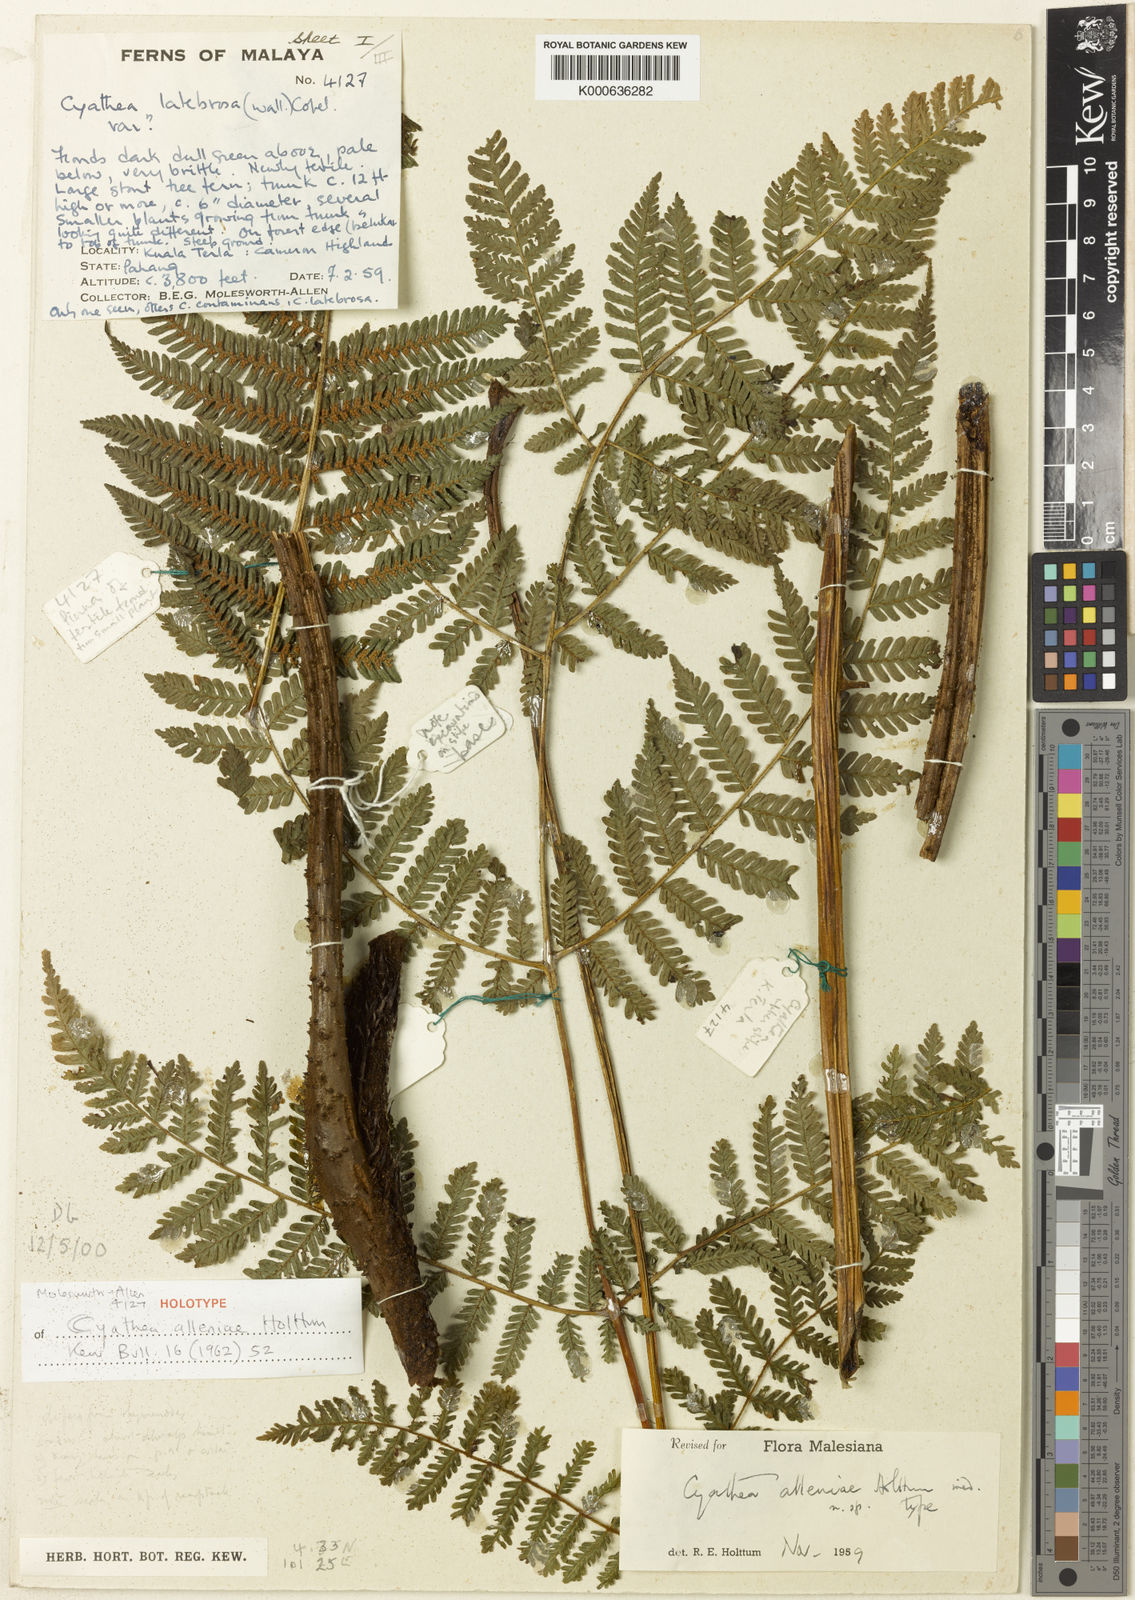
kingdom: Plantae
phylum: Tracheophyta
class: Polypodiopsida
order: Cyatheales
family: Cyatheaceae
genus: Alsophila
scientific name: Alsophila alleniae
